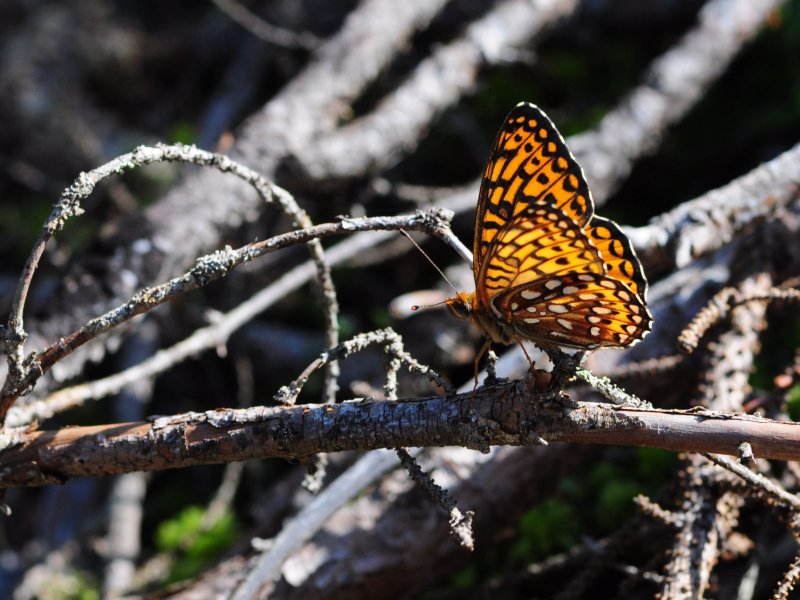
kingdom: Animalia
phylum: Arthropoda
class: Insecta
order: Lepidoptera
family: Nymphalidae
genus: Speyeria
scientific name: Speyeria atlantis
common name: Atlantis Fritillary
